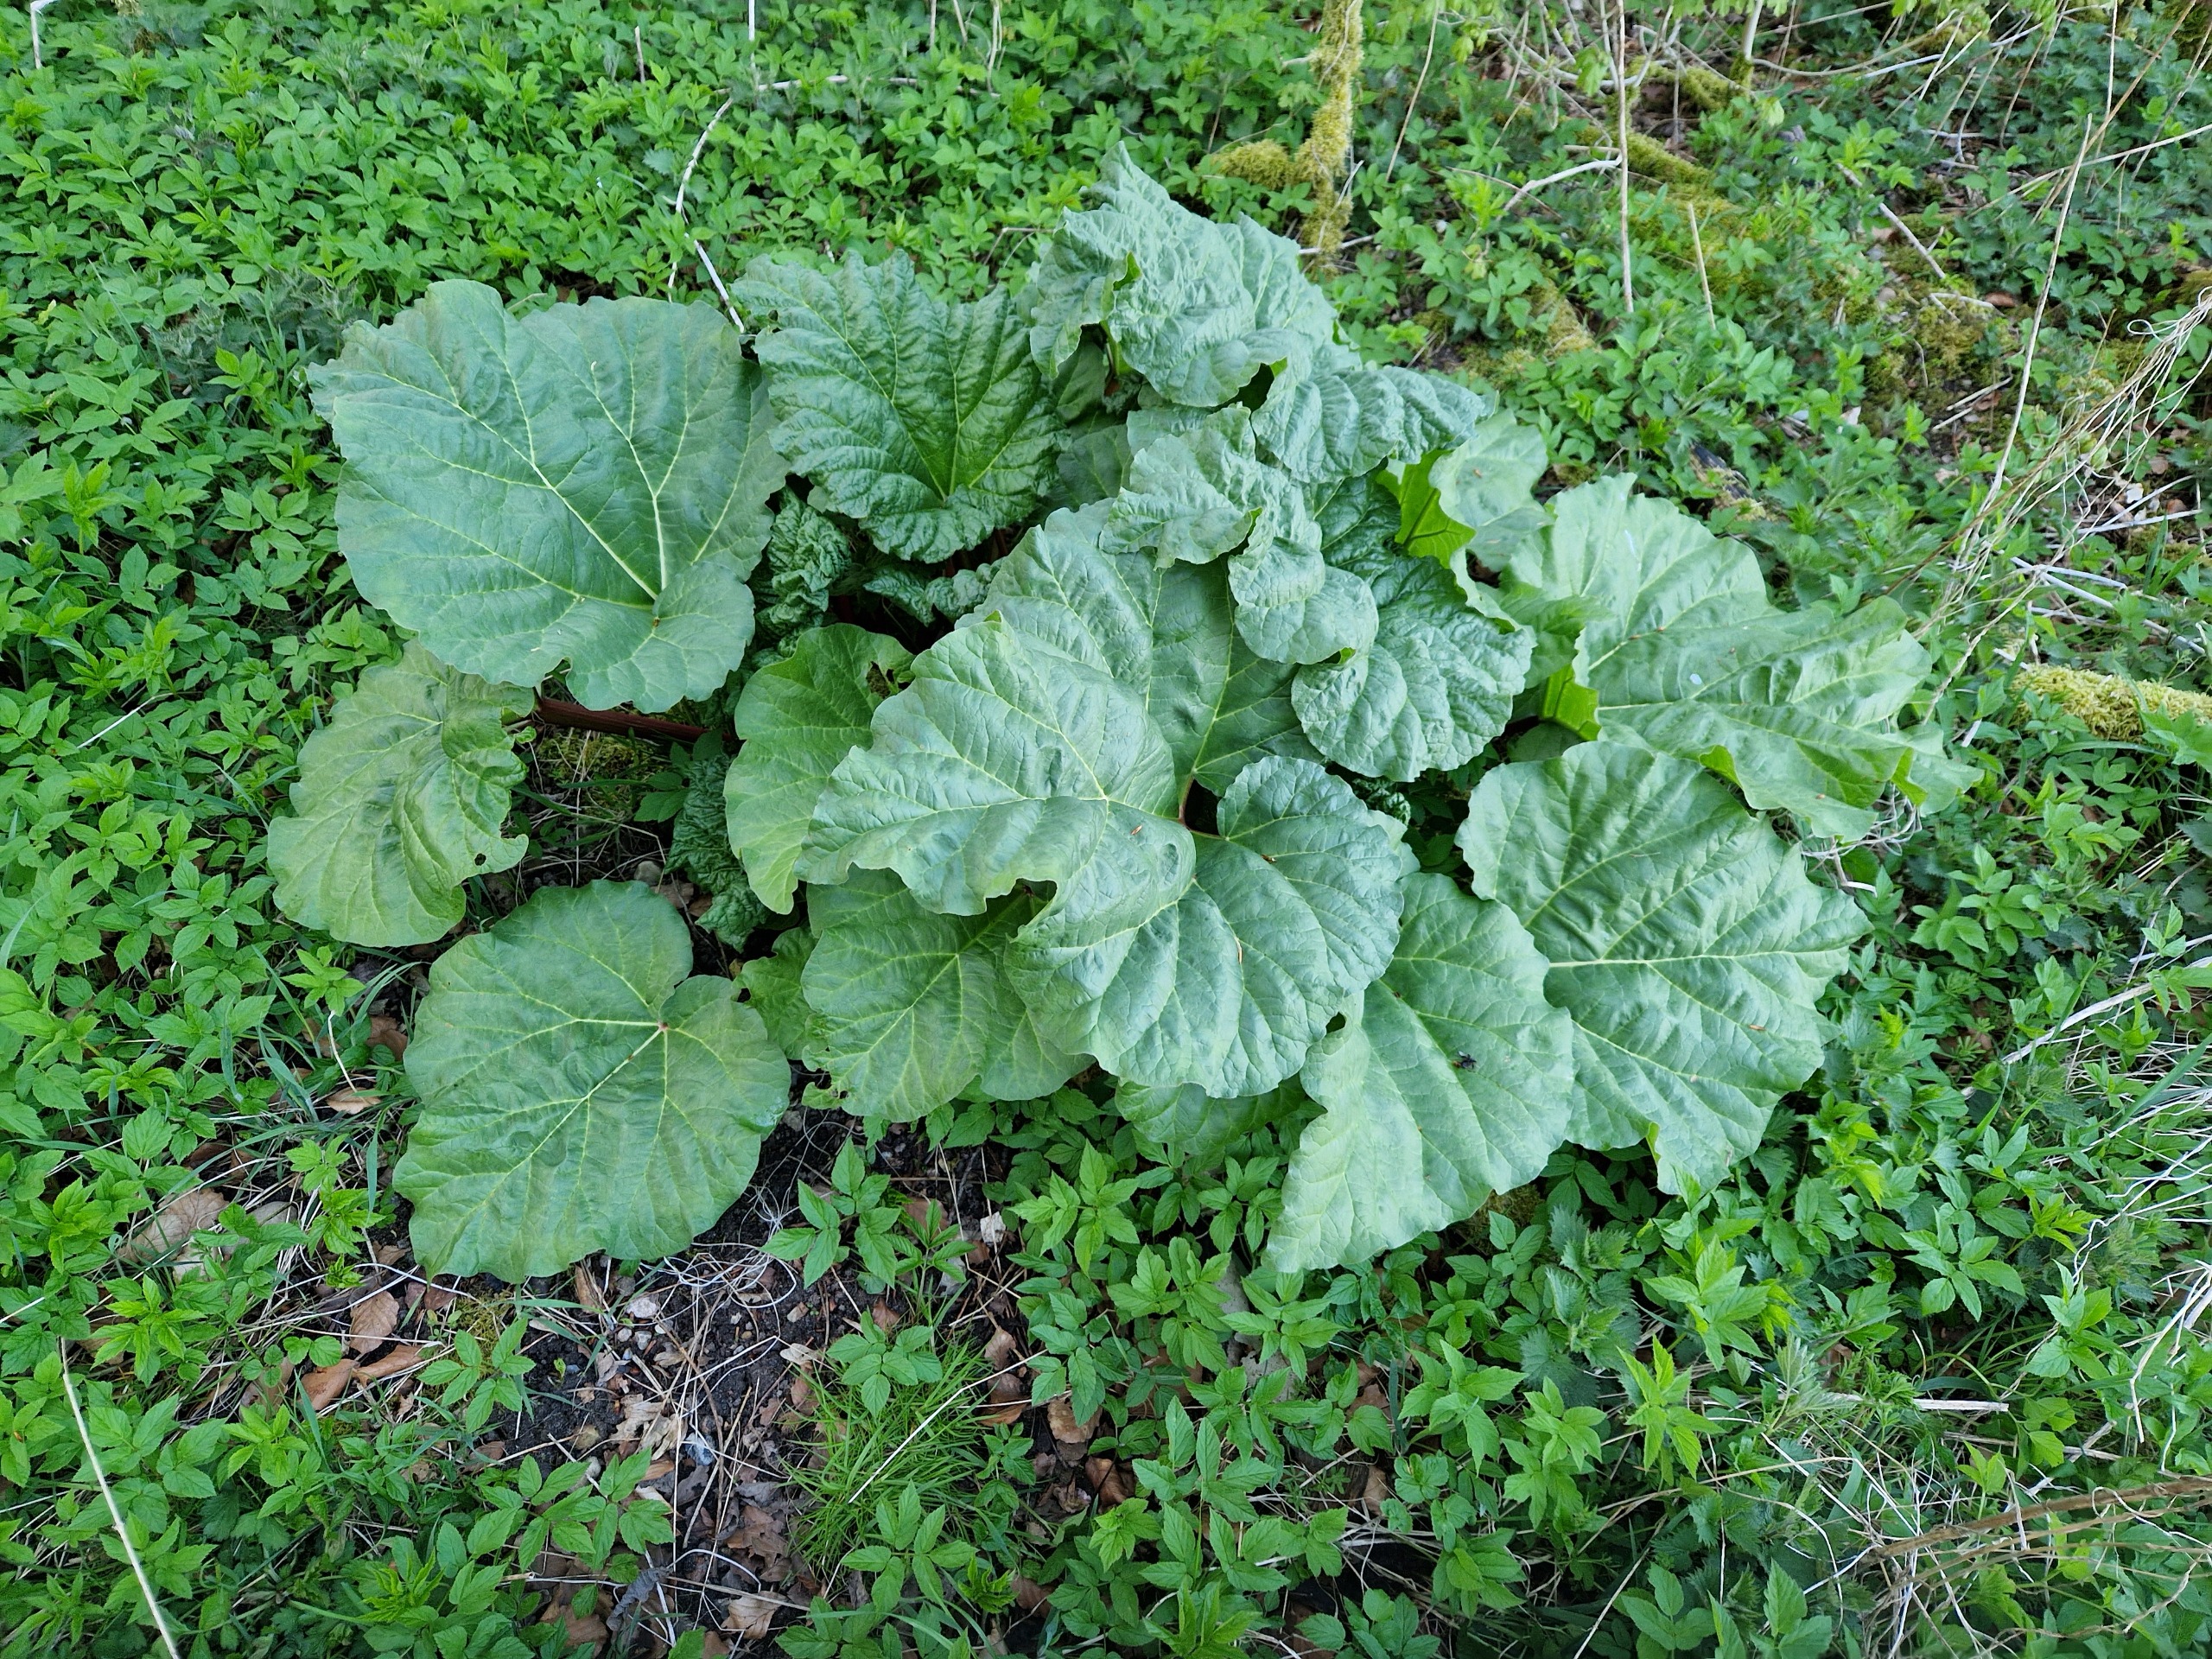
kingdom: Plantae
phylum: Tracheophyta
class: Magnoliopsida
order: Caryophyllales
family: Polygonaceae
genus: Rheum
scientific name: Rheum rhabarbarum
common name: Rabarber
